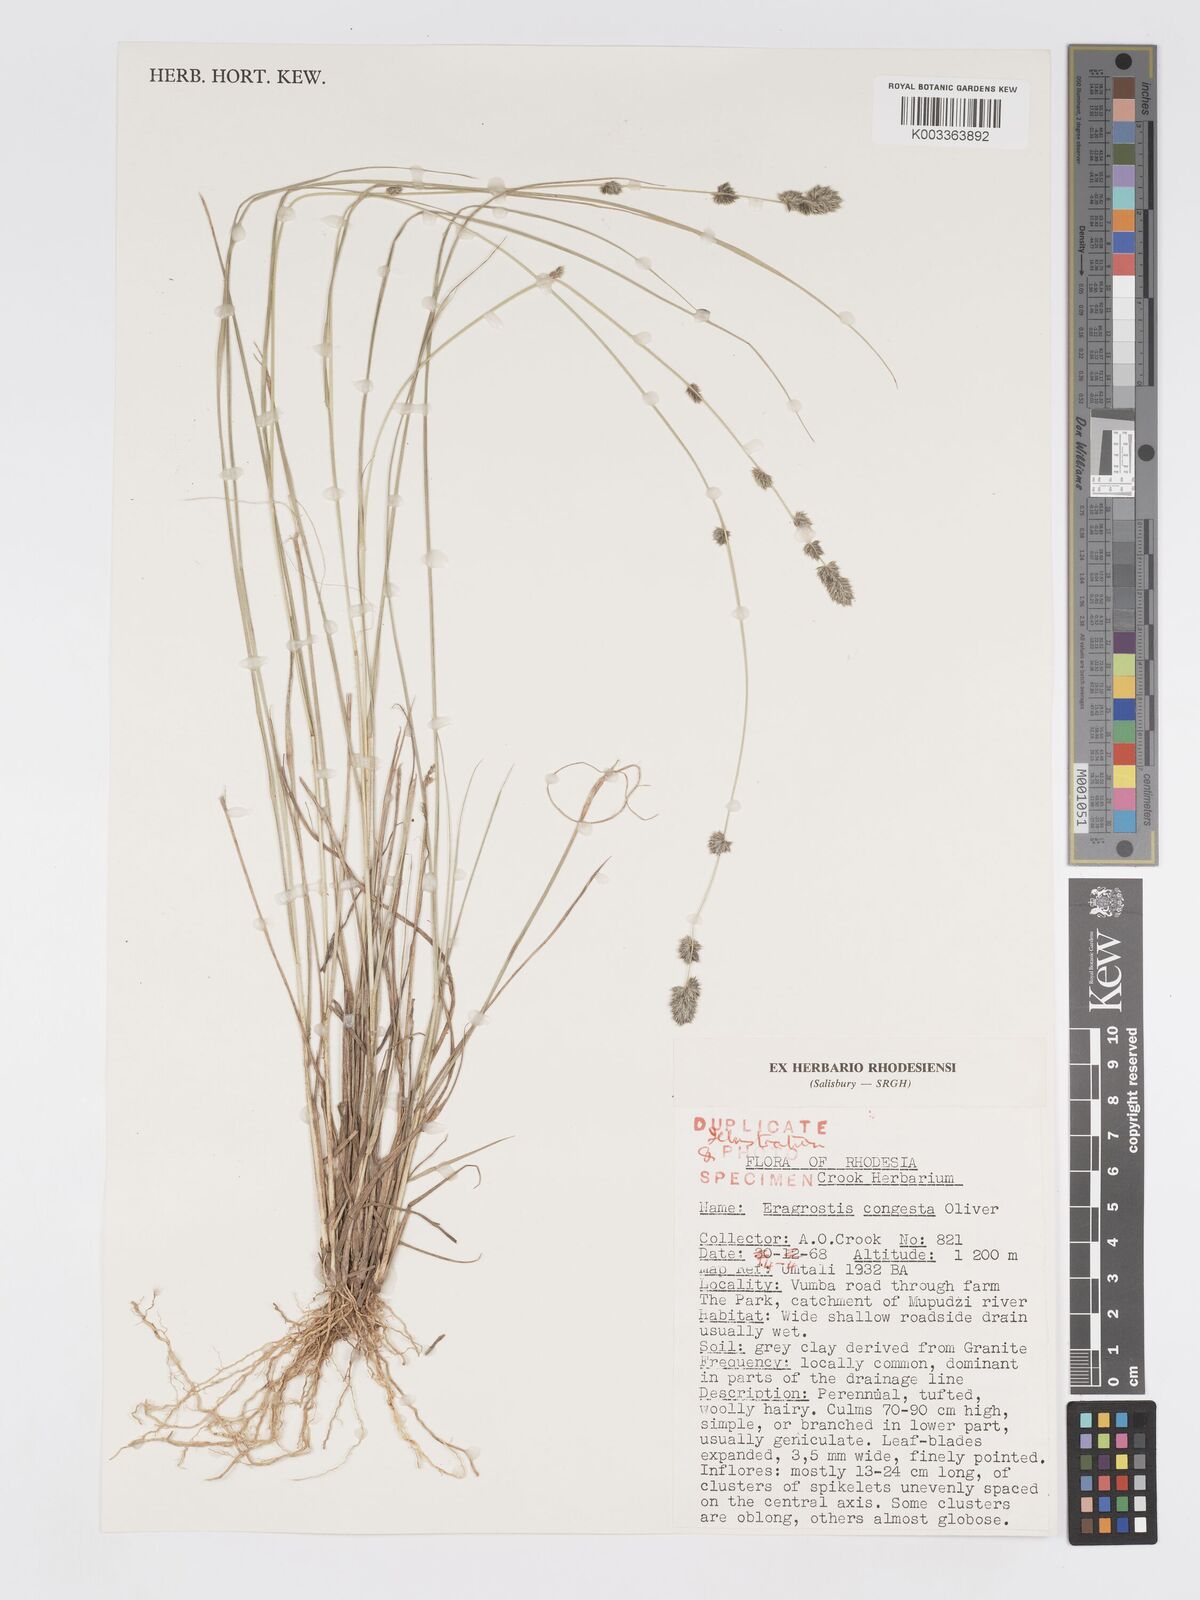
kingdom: Plantae
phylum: Tracheophyta
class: Liliopsida
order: Poales
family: Poaceae
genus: Eragrostis
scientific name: Eragrostis congesta
